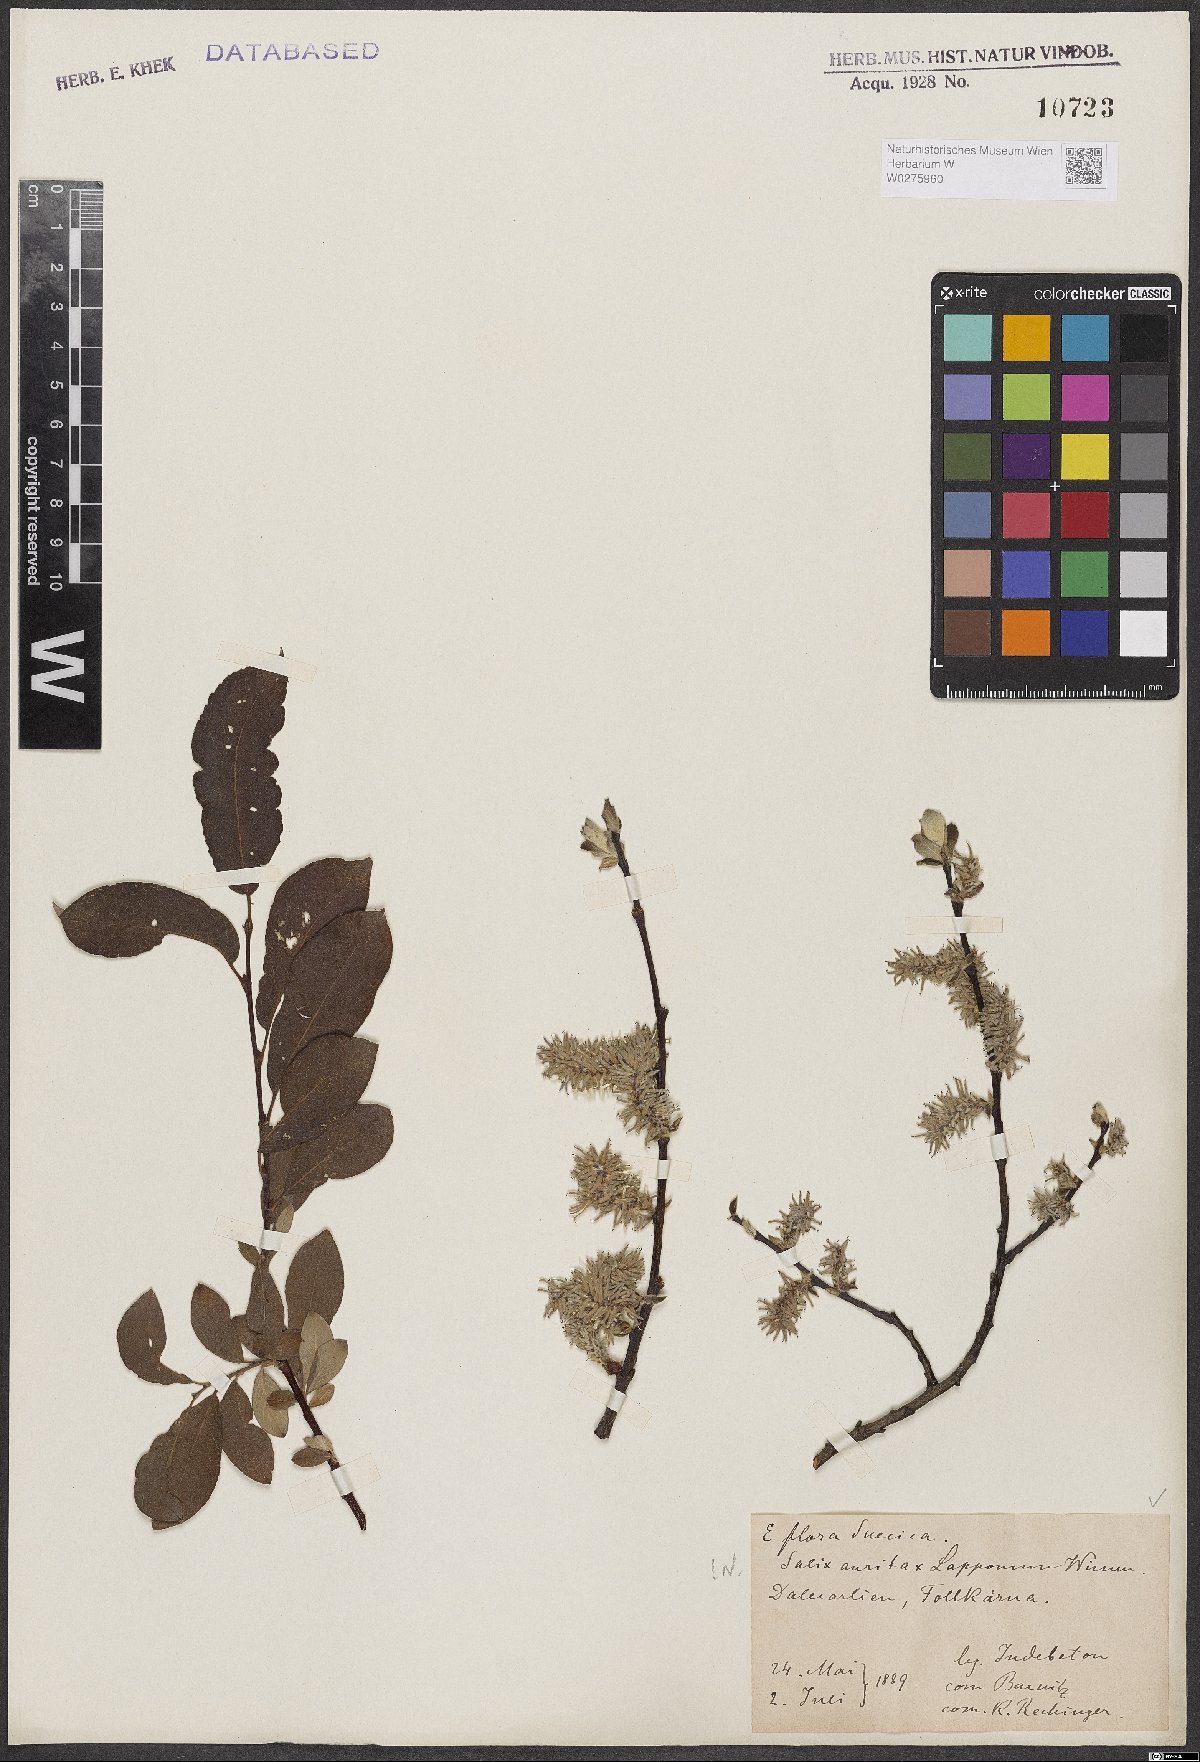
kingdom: Plantae
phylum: Tracheophyta
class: Magnoliopsida
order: Malpighiales
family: Salicaceae
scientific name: Salicaceae
